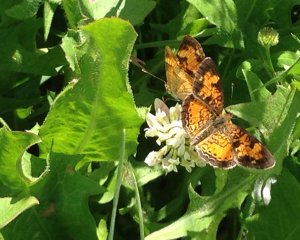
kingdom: Animalia
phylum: Arthropoda
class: Insecta
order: Lepidoptera
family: Nymphalidae
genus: Phyciodes
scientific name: Phyciodes tharos
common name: Northern Crescent
